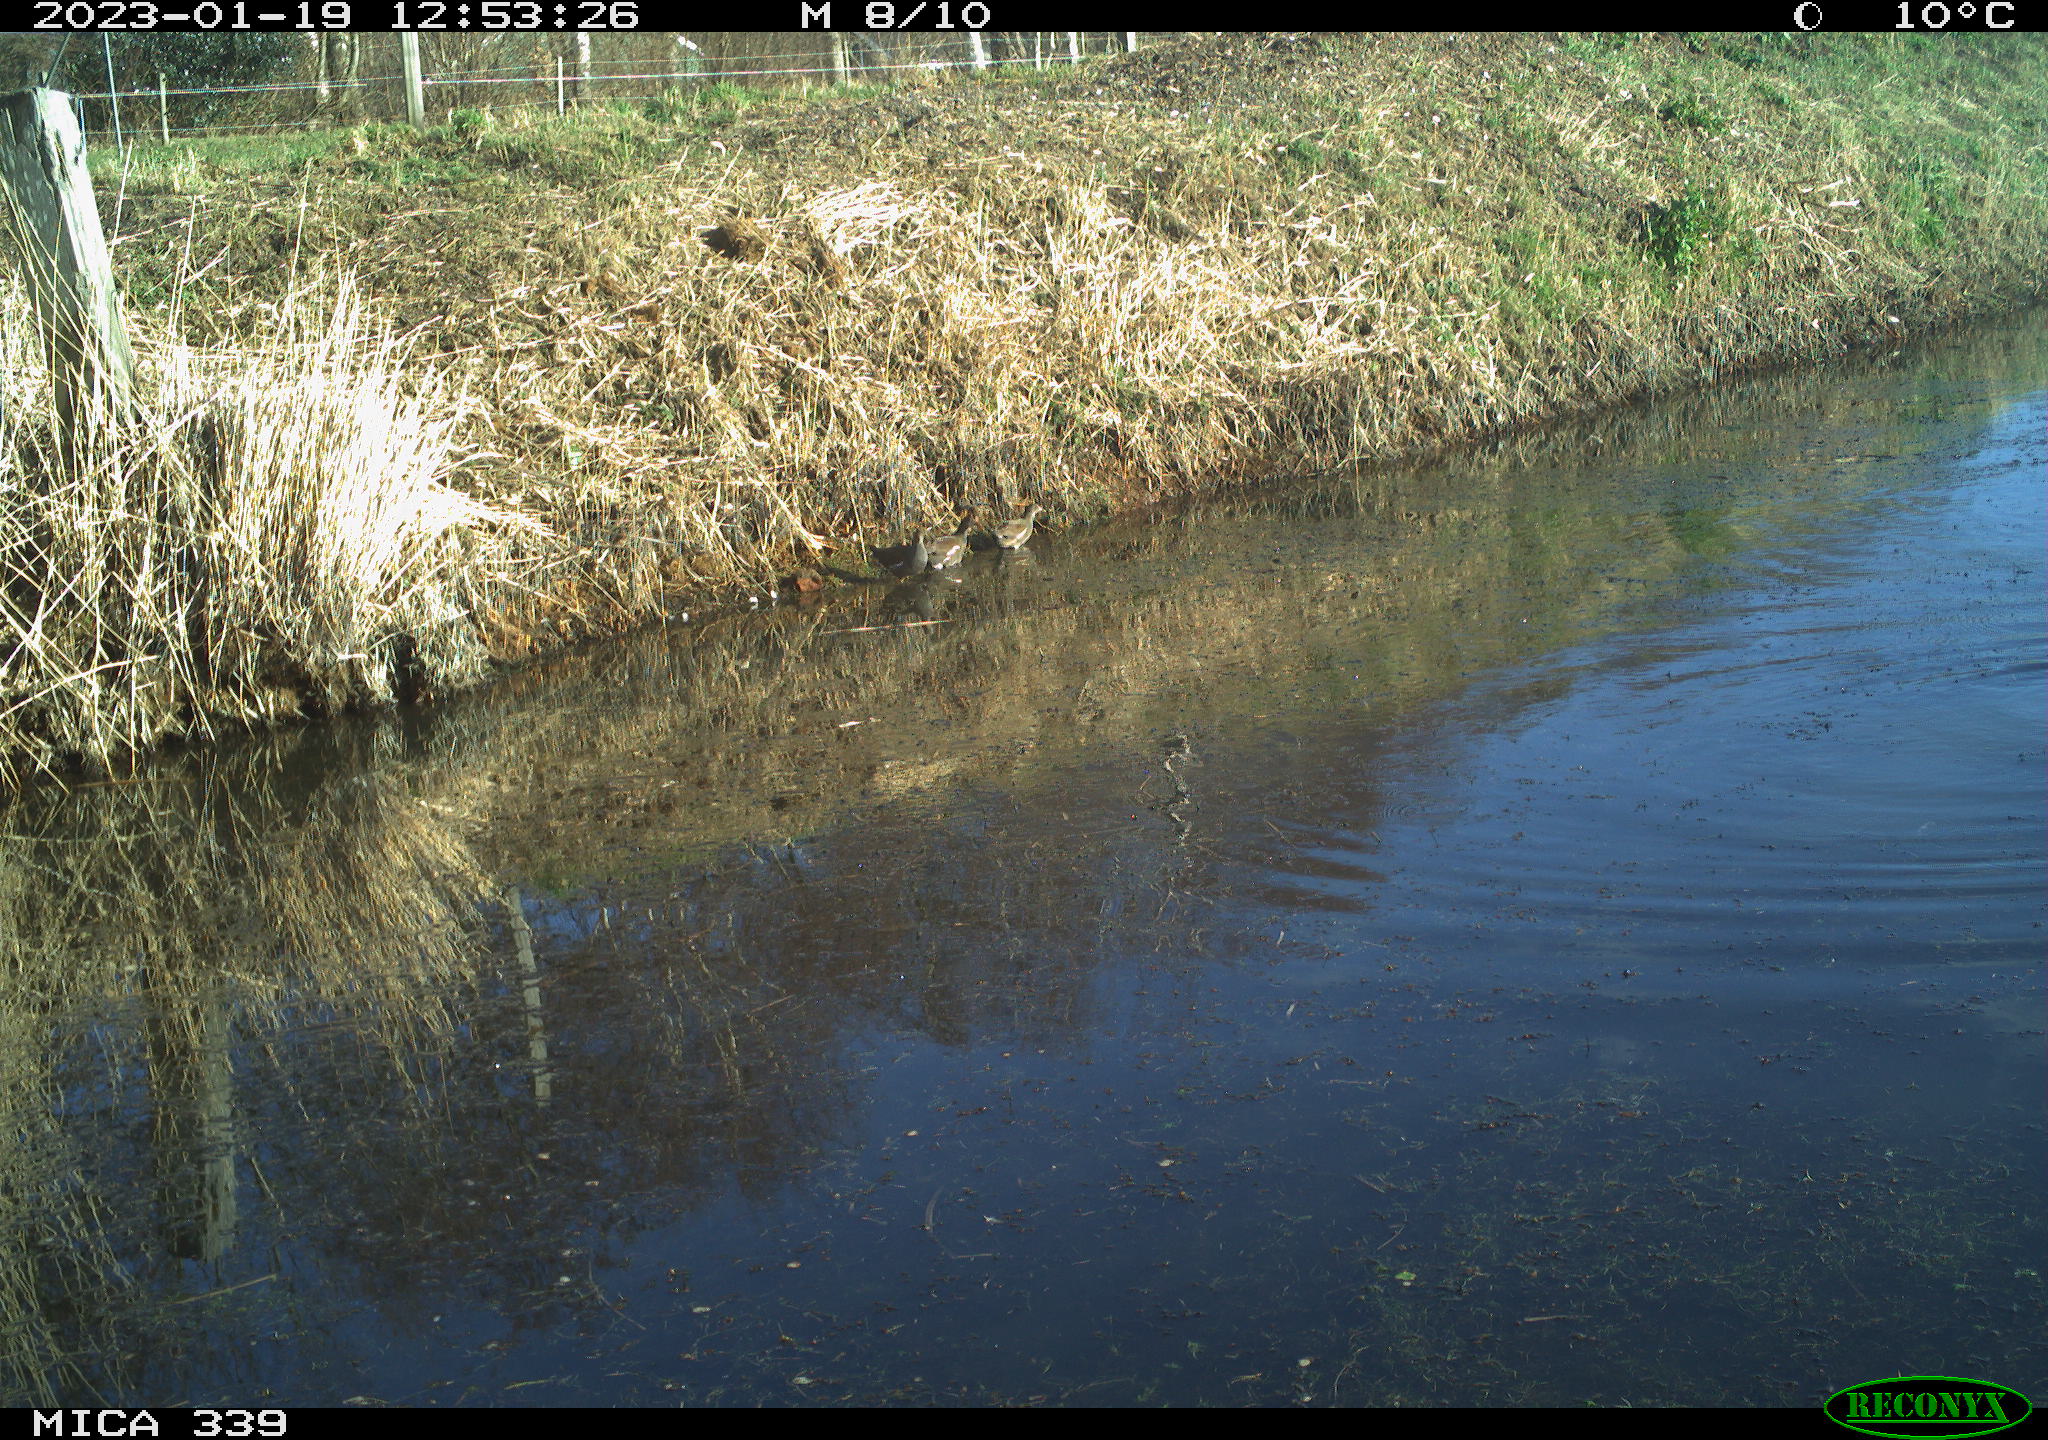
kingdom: Animalia
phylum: Chordata
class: Aves
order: Suliformes
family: Phalacrocoracidae
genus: Phalacrocorax
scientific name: Phalacrocorax carbo
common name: Great cormorant
